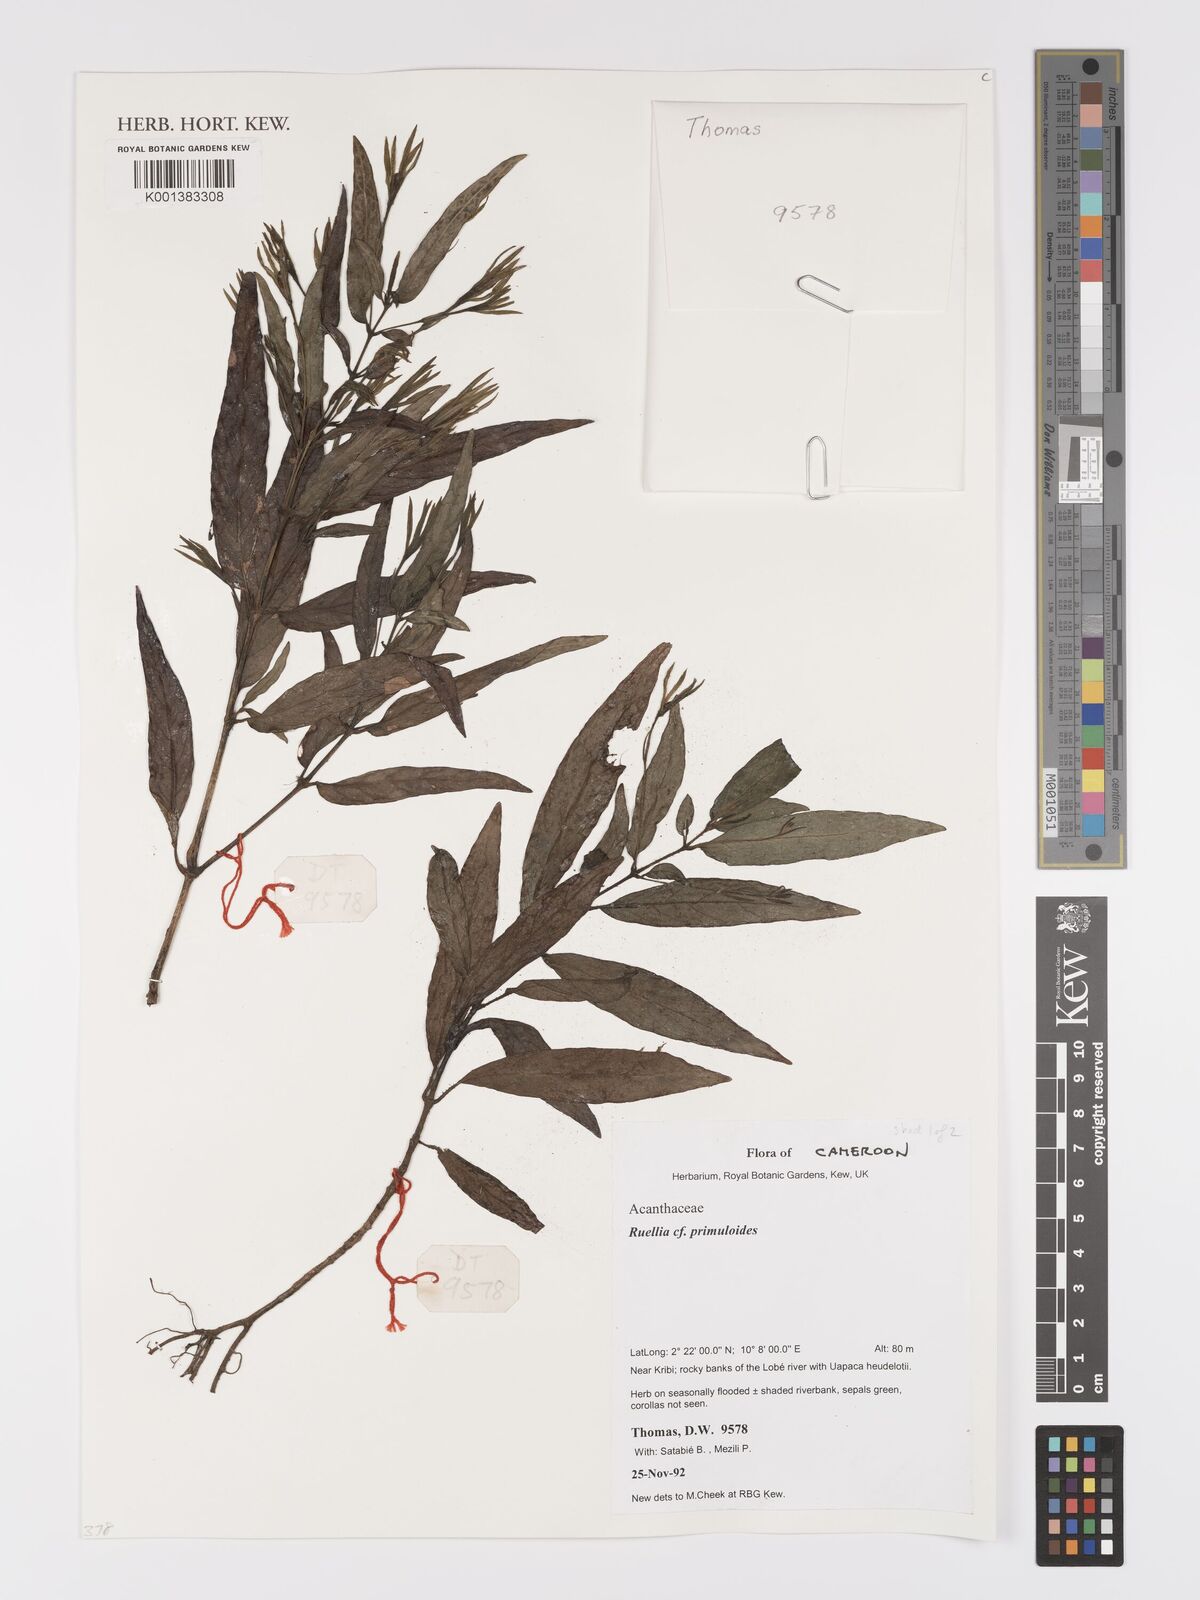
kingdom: Plantae
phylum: Tracheophyta
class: Magnoliopsida
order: Lamiales
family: Acanthaceae
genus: Ruellia
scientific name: Ruellia primuloides
